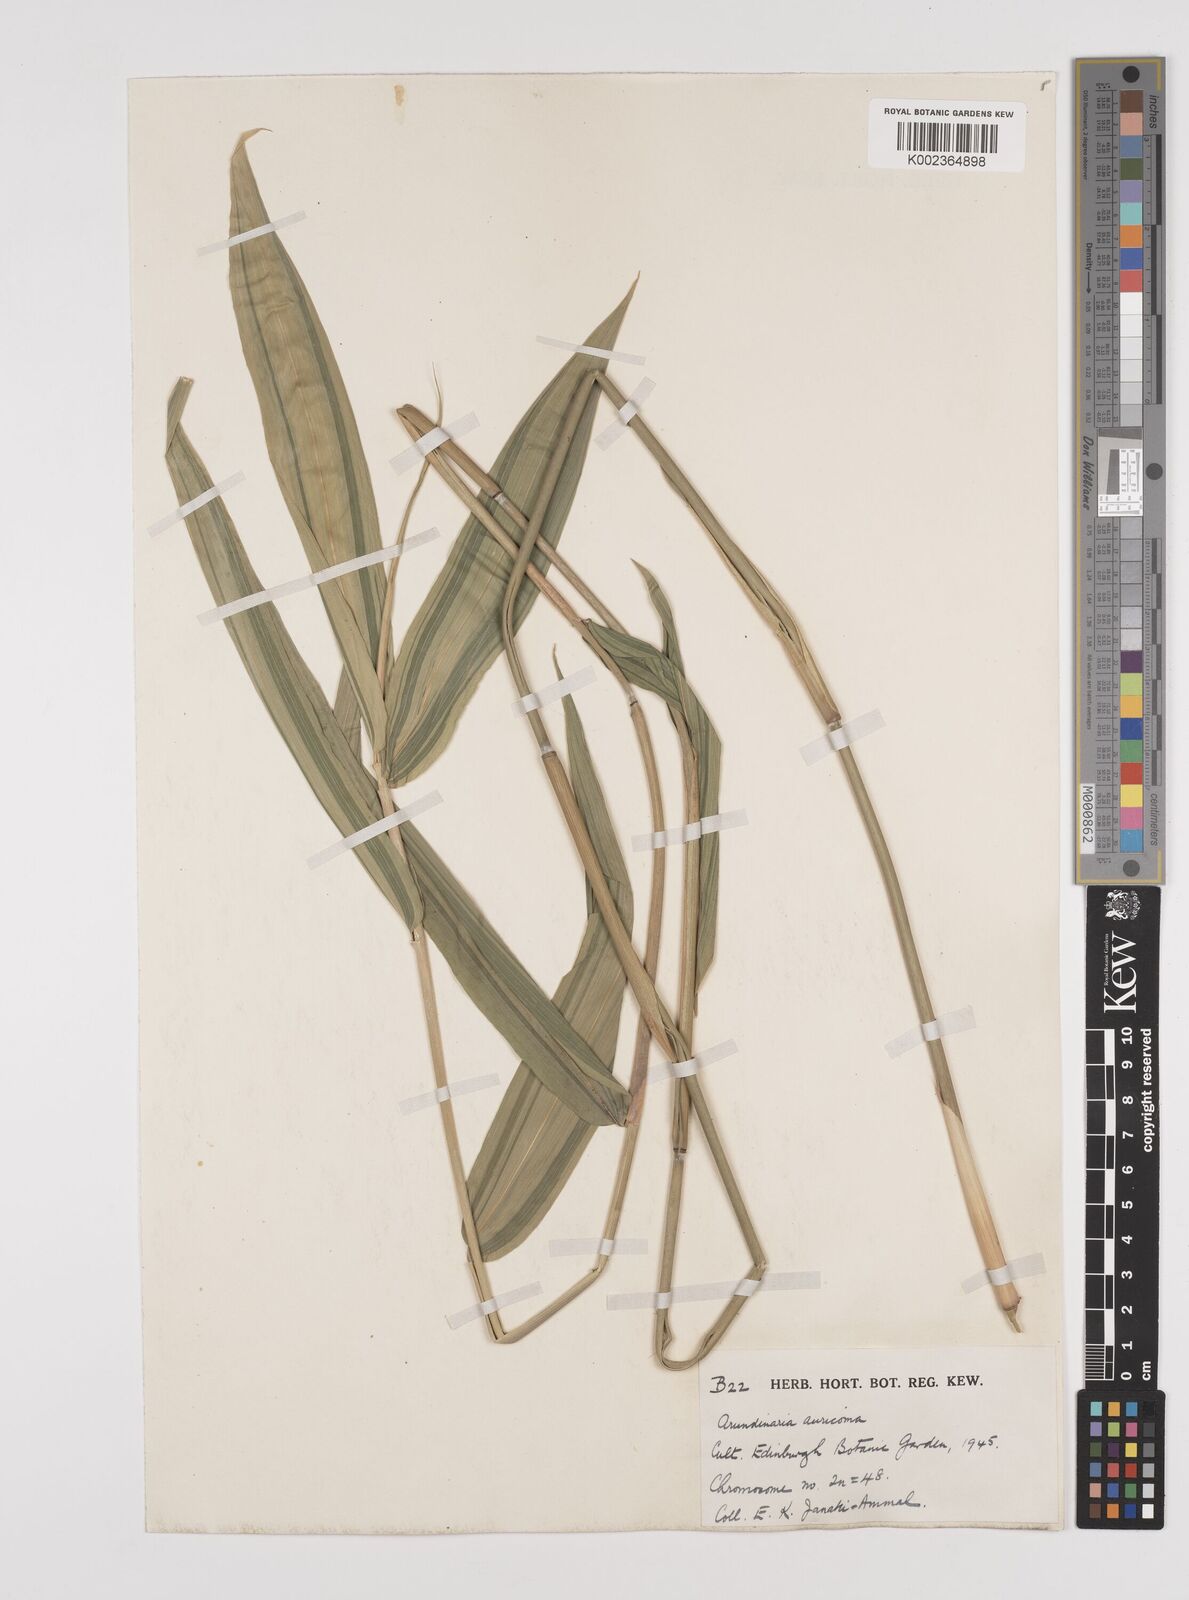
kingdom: Plantae
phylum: Tracheophyta
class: Liliopsida
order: Poales
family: Poaceae
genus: Pleioblastus
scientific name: Pleioblastus viridistriatus
